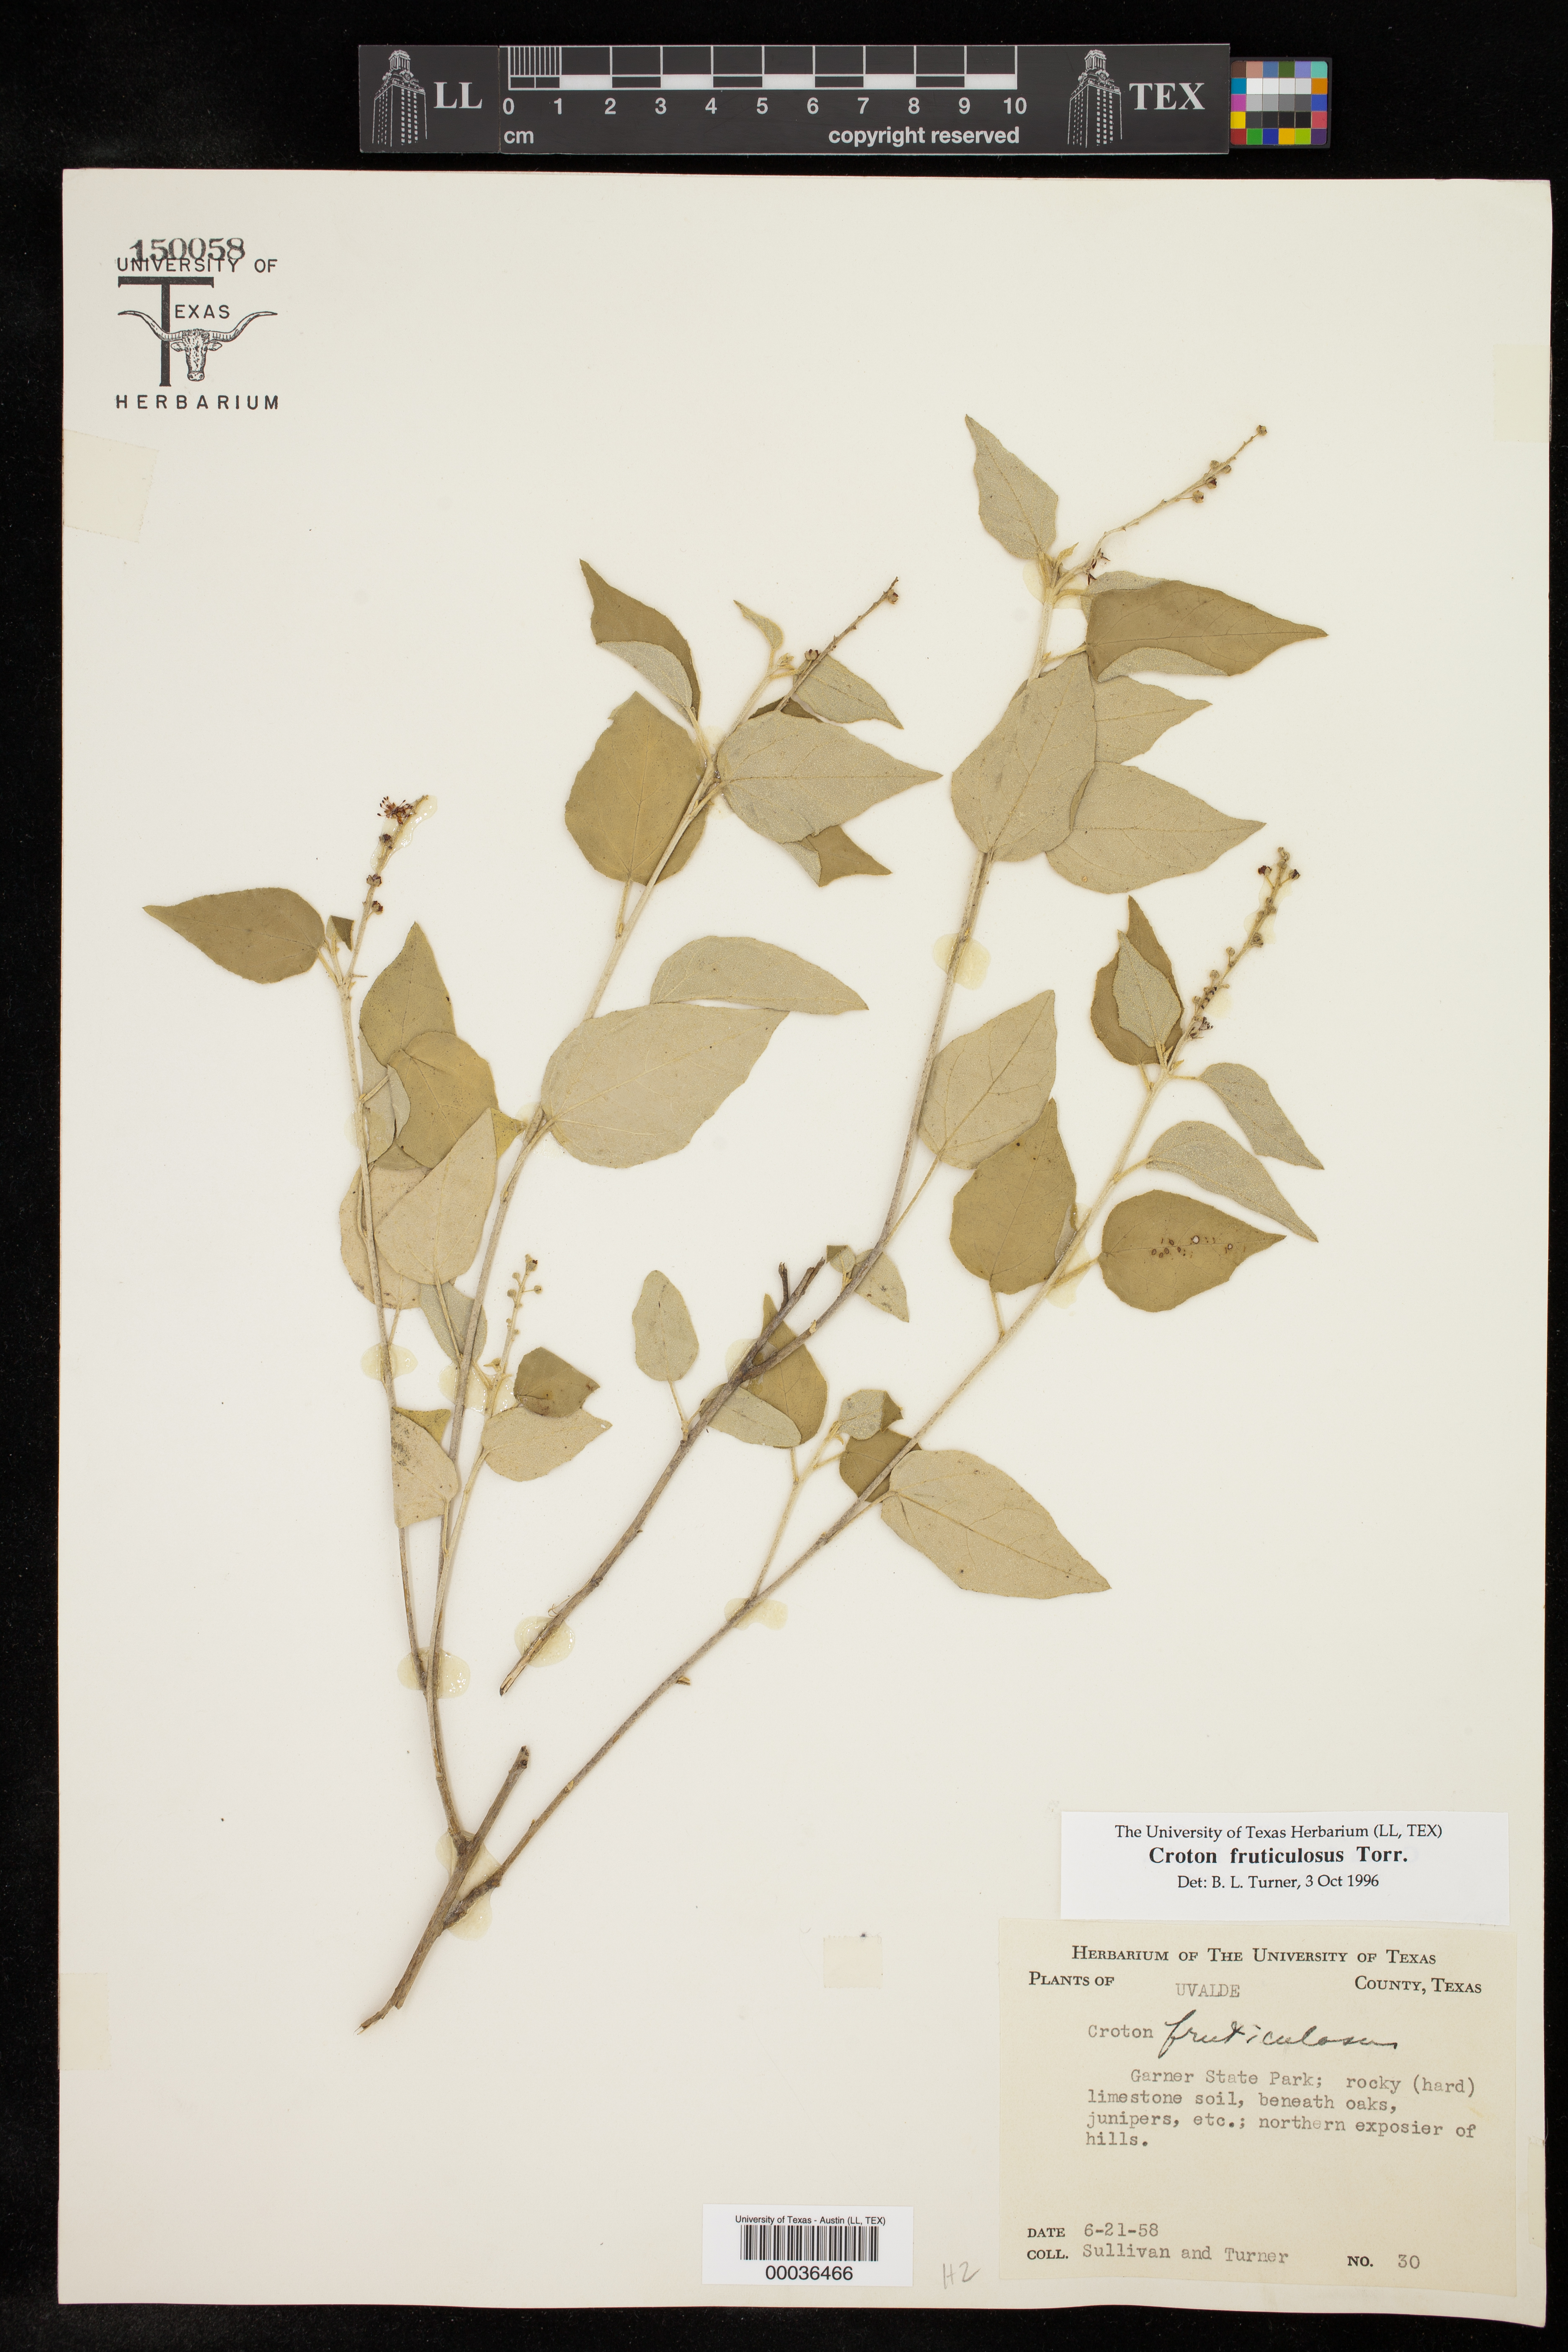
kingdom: Plantae
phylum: Tracheophyta
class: Magnoliopsida
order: Malpighiales
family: Euphorbiaceae
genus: Croton
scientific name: Croton fruticulosus
